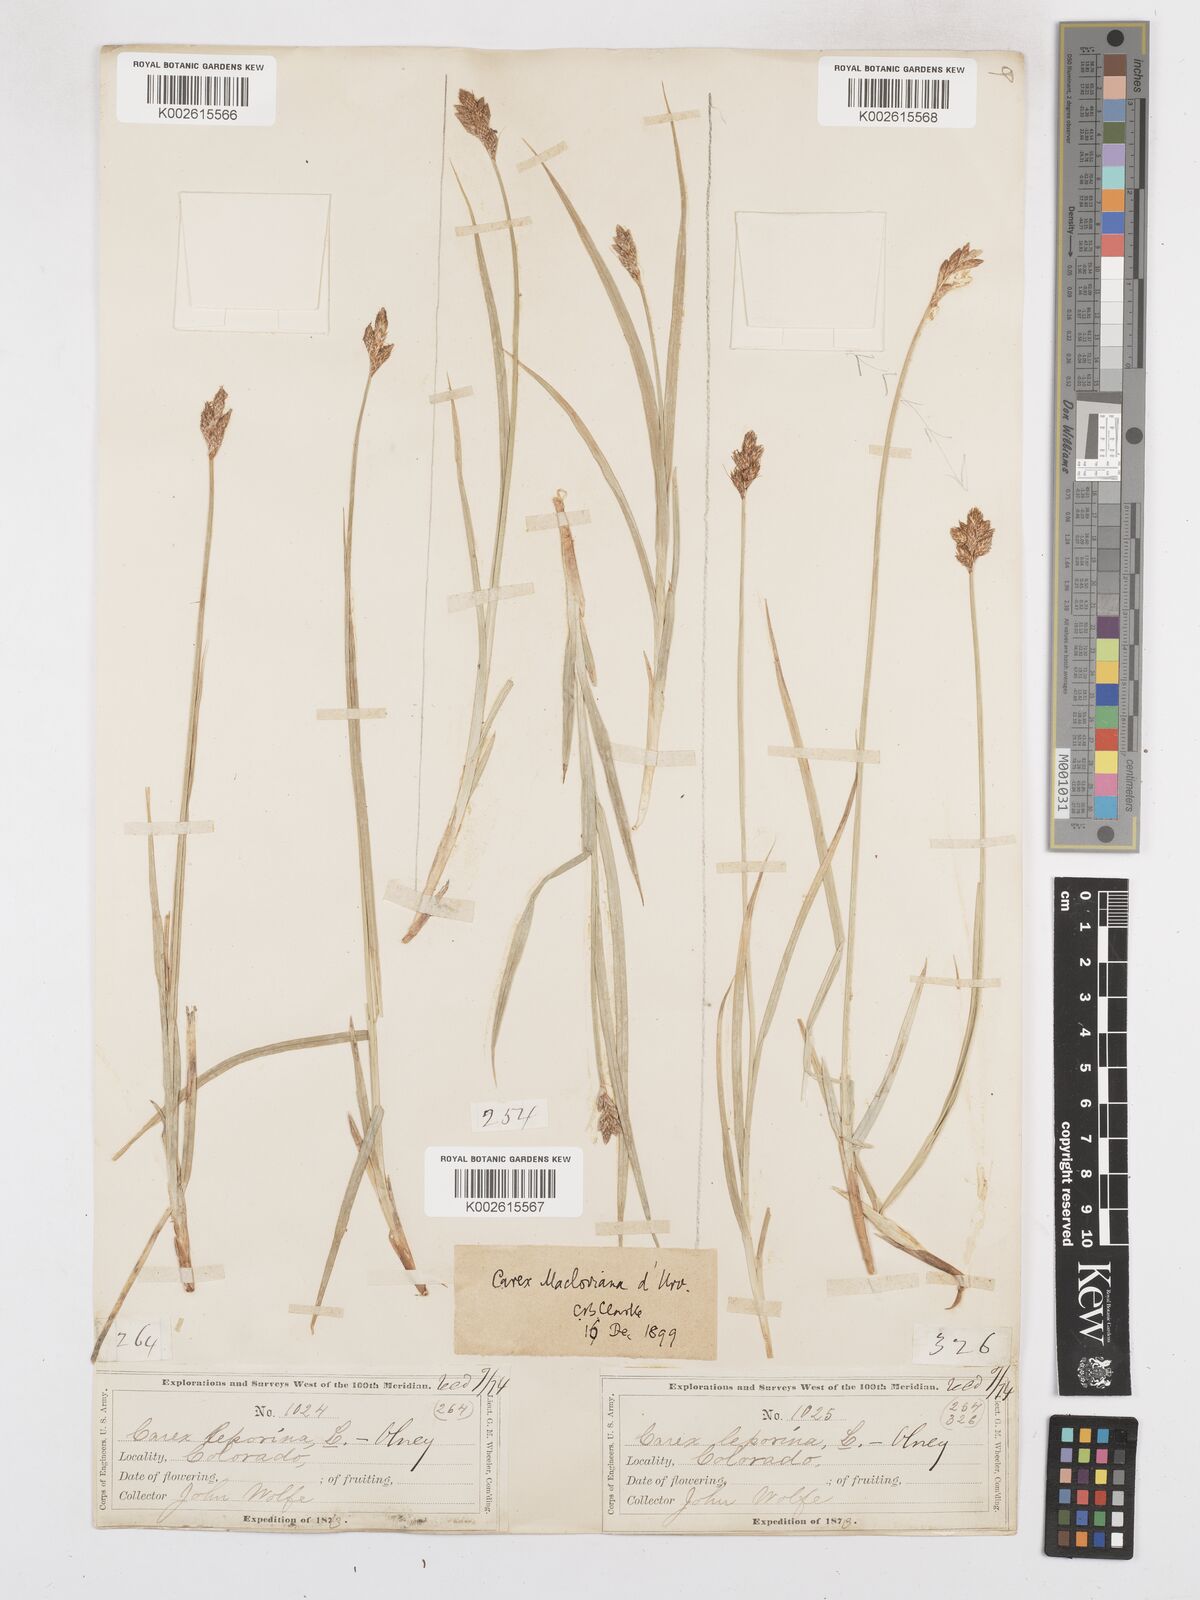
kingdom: Plantae
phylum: Tracheophyta
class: Liliopsida
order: Poales
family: Cyperaceae
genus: Carex
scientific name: Carex macloviana
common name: Falkland island sedge
